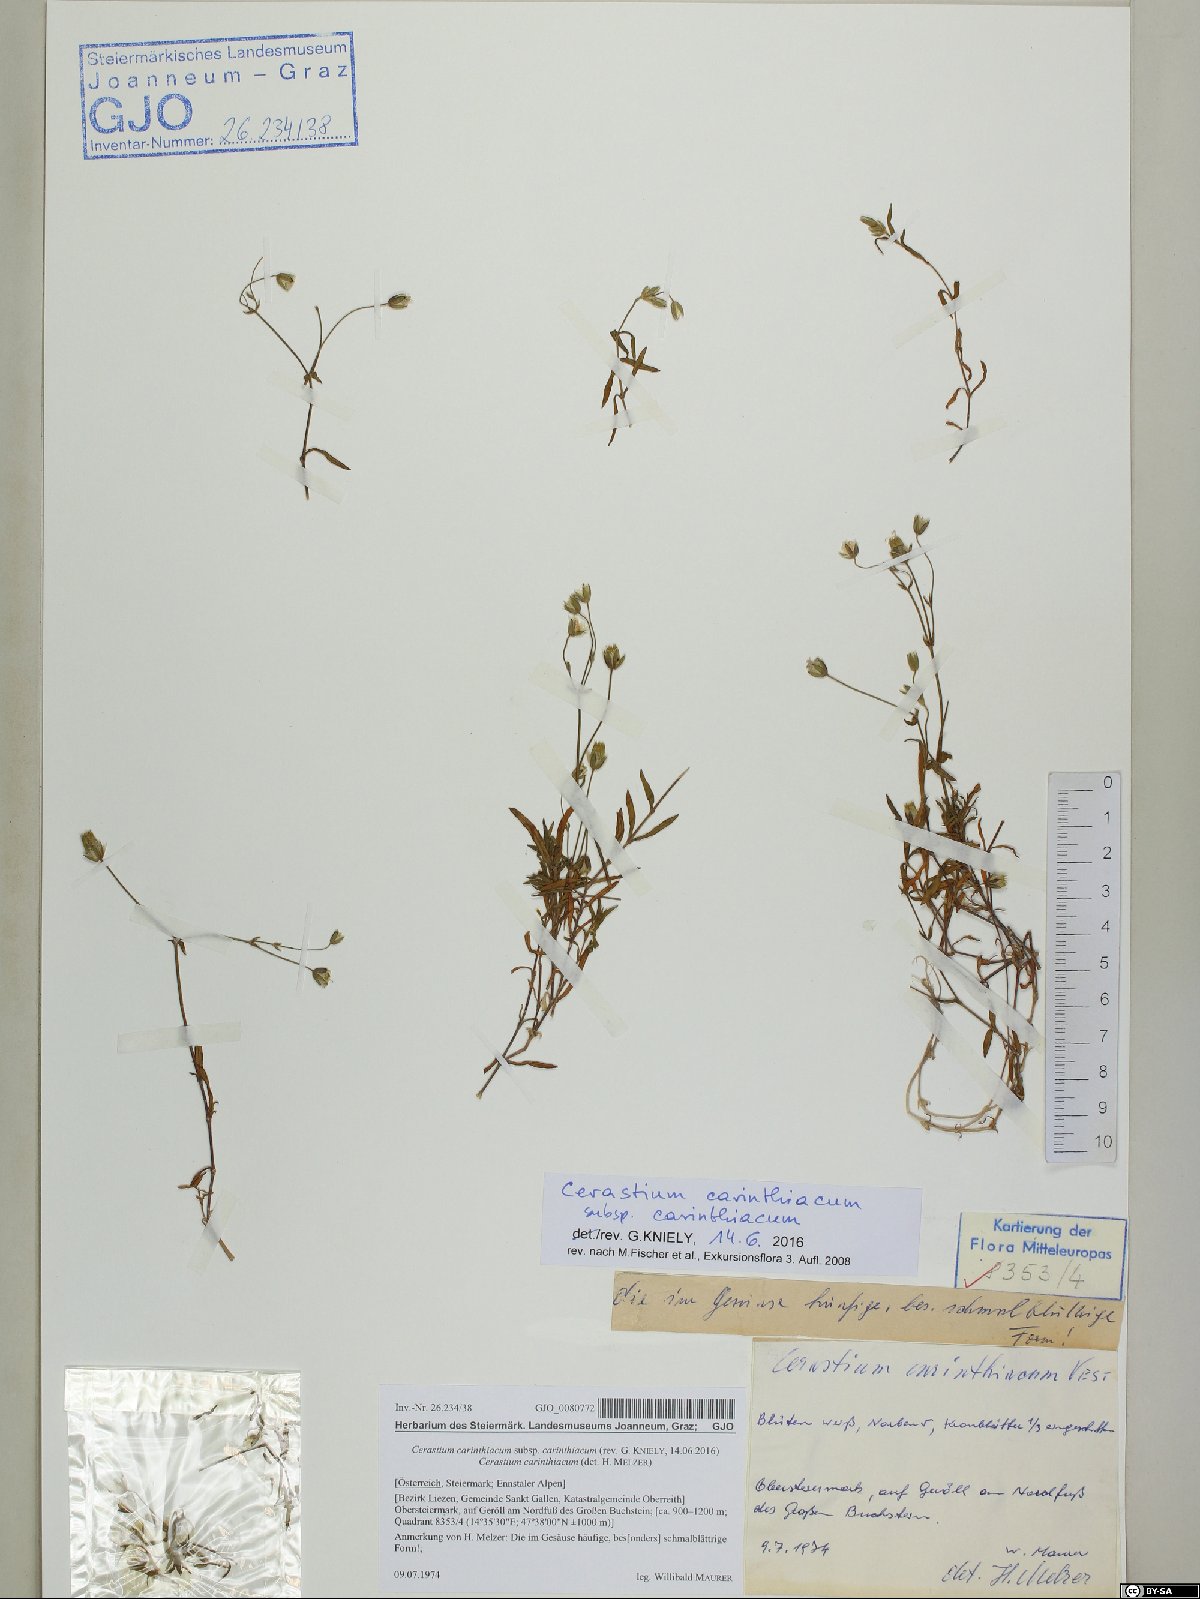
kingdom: Plantae
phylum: Tracheophyta
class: Magnoliopsida
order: Caryophyllales
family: Caryophyllaceae
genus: Cerastium
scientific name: Cerastium carinthiacum
